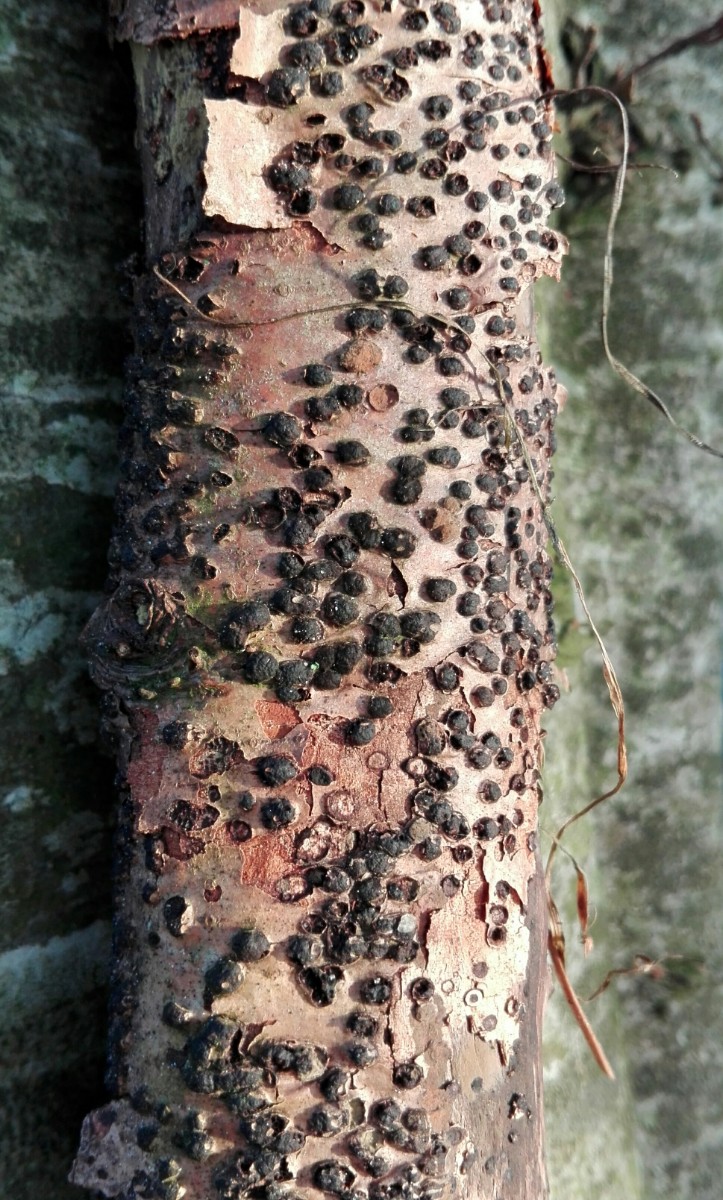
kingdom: Fungi
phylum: Ascomycota
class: Sordariomycetes
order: Sordariales
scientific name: Sordariales
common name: kernesvampordenen
